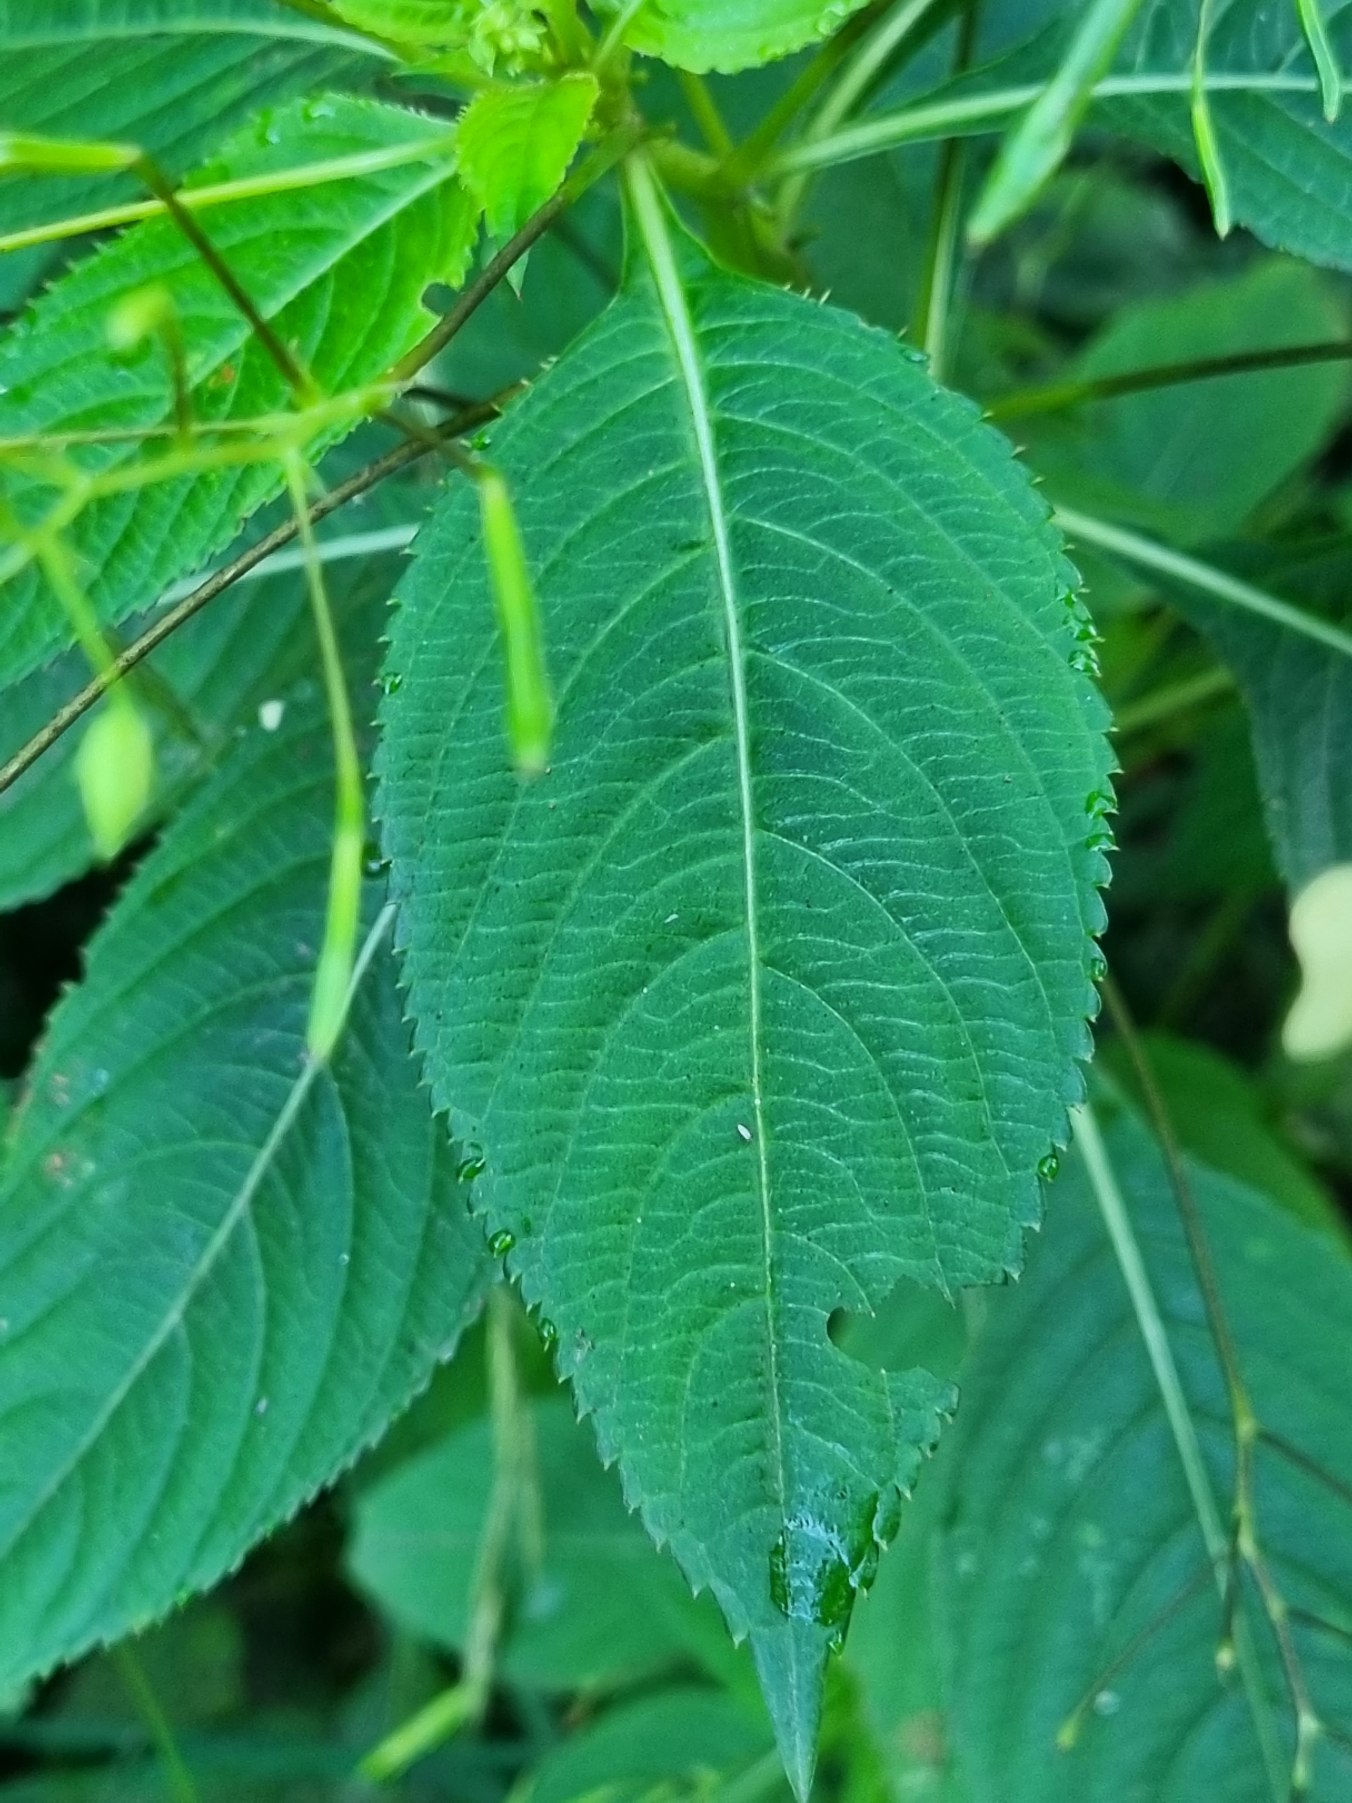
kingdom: Plantae
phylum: Tracheophyta
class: Magnoliopsida
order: Ericales
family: Balsaminaceae
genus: Impatiens
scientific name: Impatiens parviflora
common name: Småblomstret balsamin
